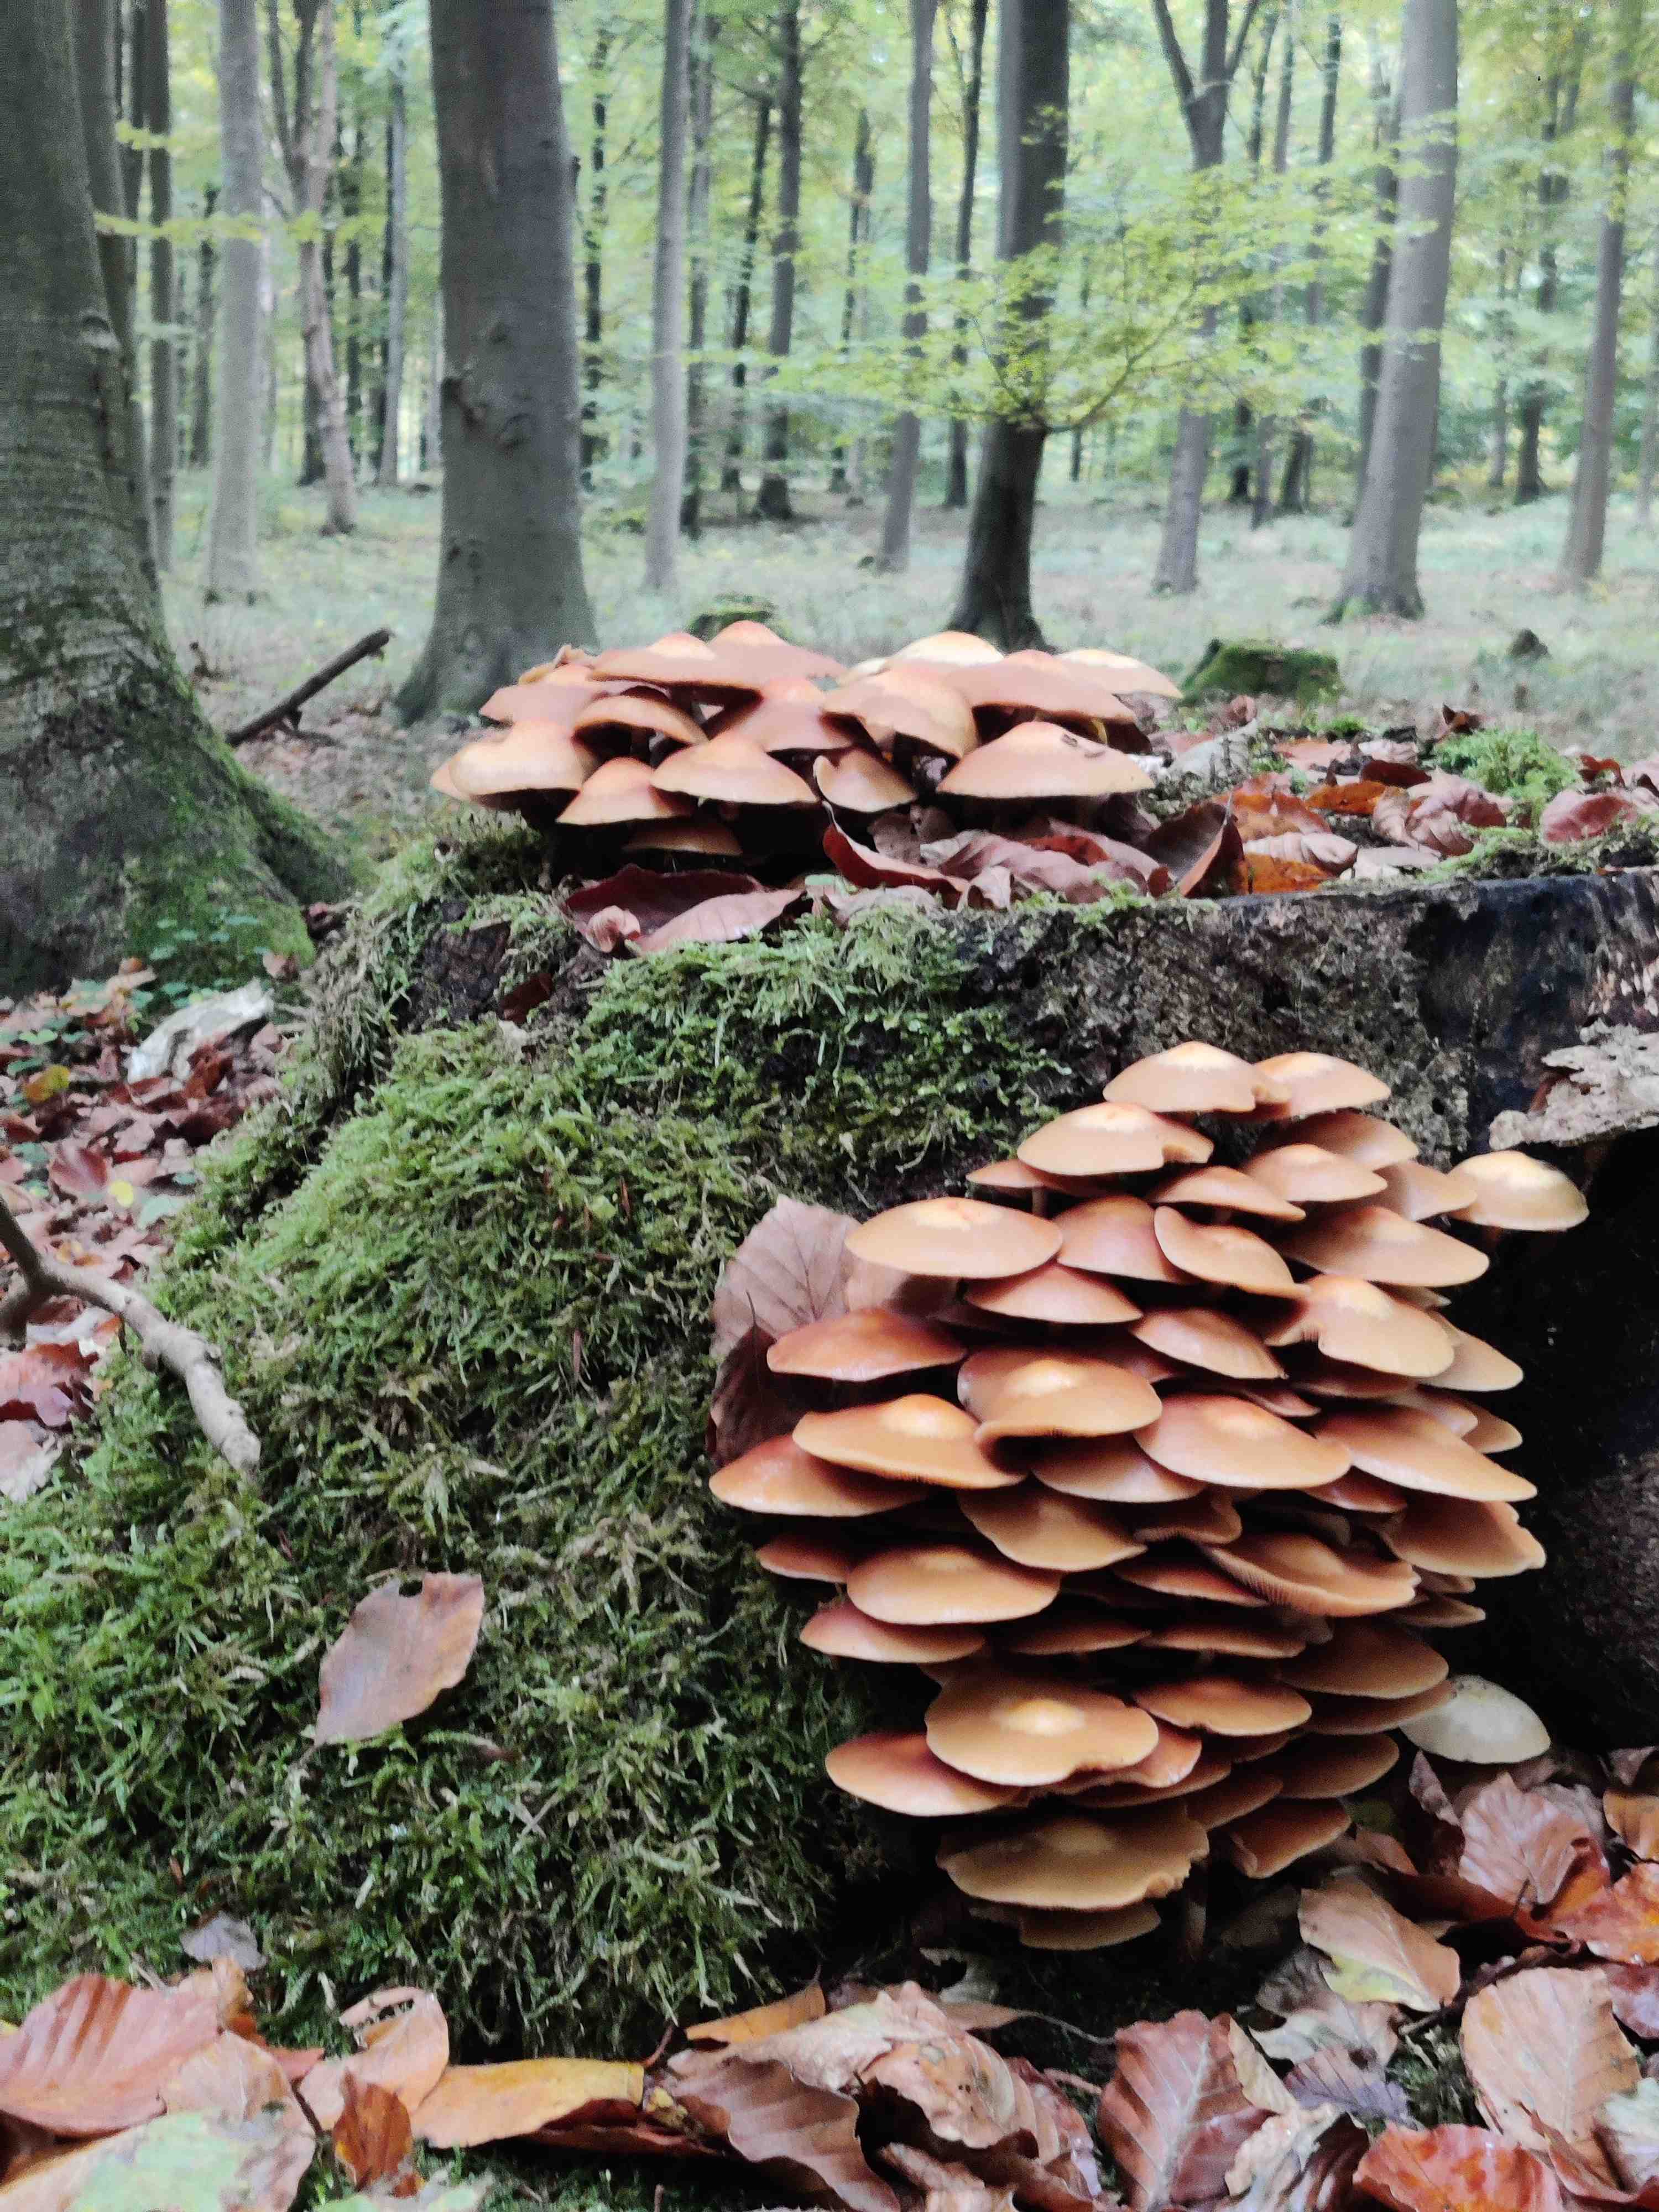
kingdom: Fungi
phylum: Basidiomycota
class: Agaricomycetes
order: Agaricales
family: Strophariaceae
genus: Kuehneromyces
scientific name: Kuehneromyces mutabilis
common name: foranderlig skælhat
